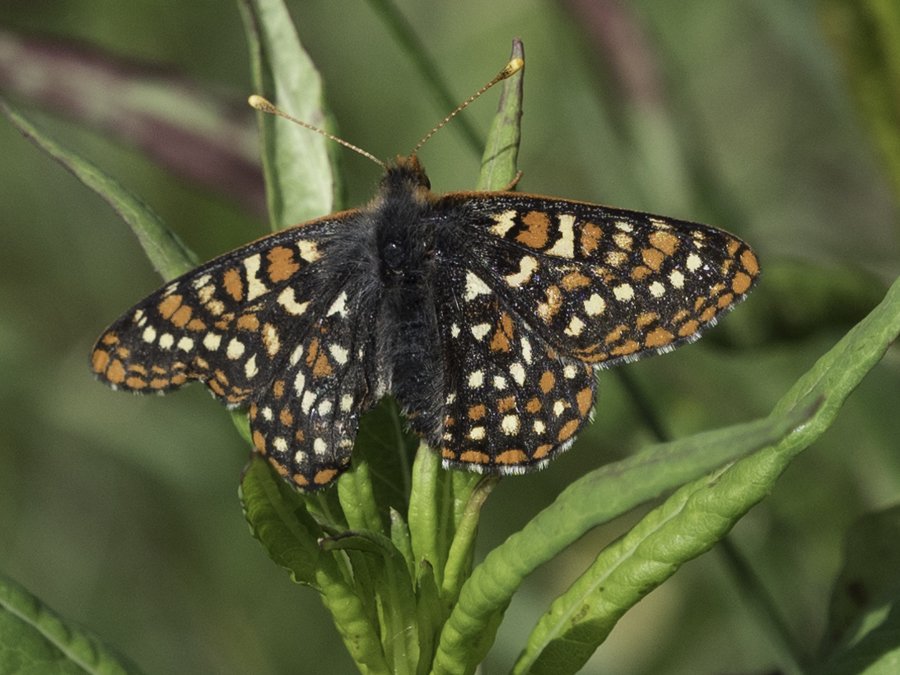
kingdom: Animalia
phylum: Arthropoda
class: Insecta
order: Lepidoptera
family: Nymphalidae
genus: Occidryas
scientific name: Occidryas anicia
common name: Anicia Checkerspot
